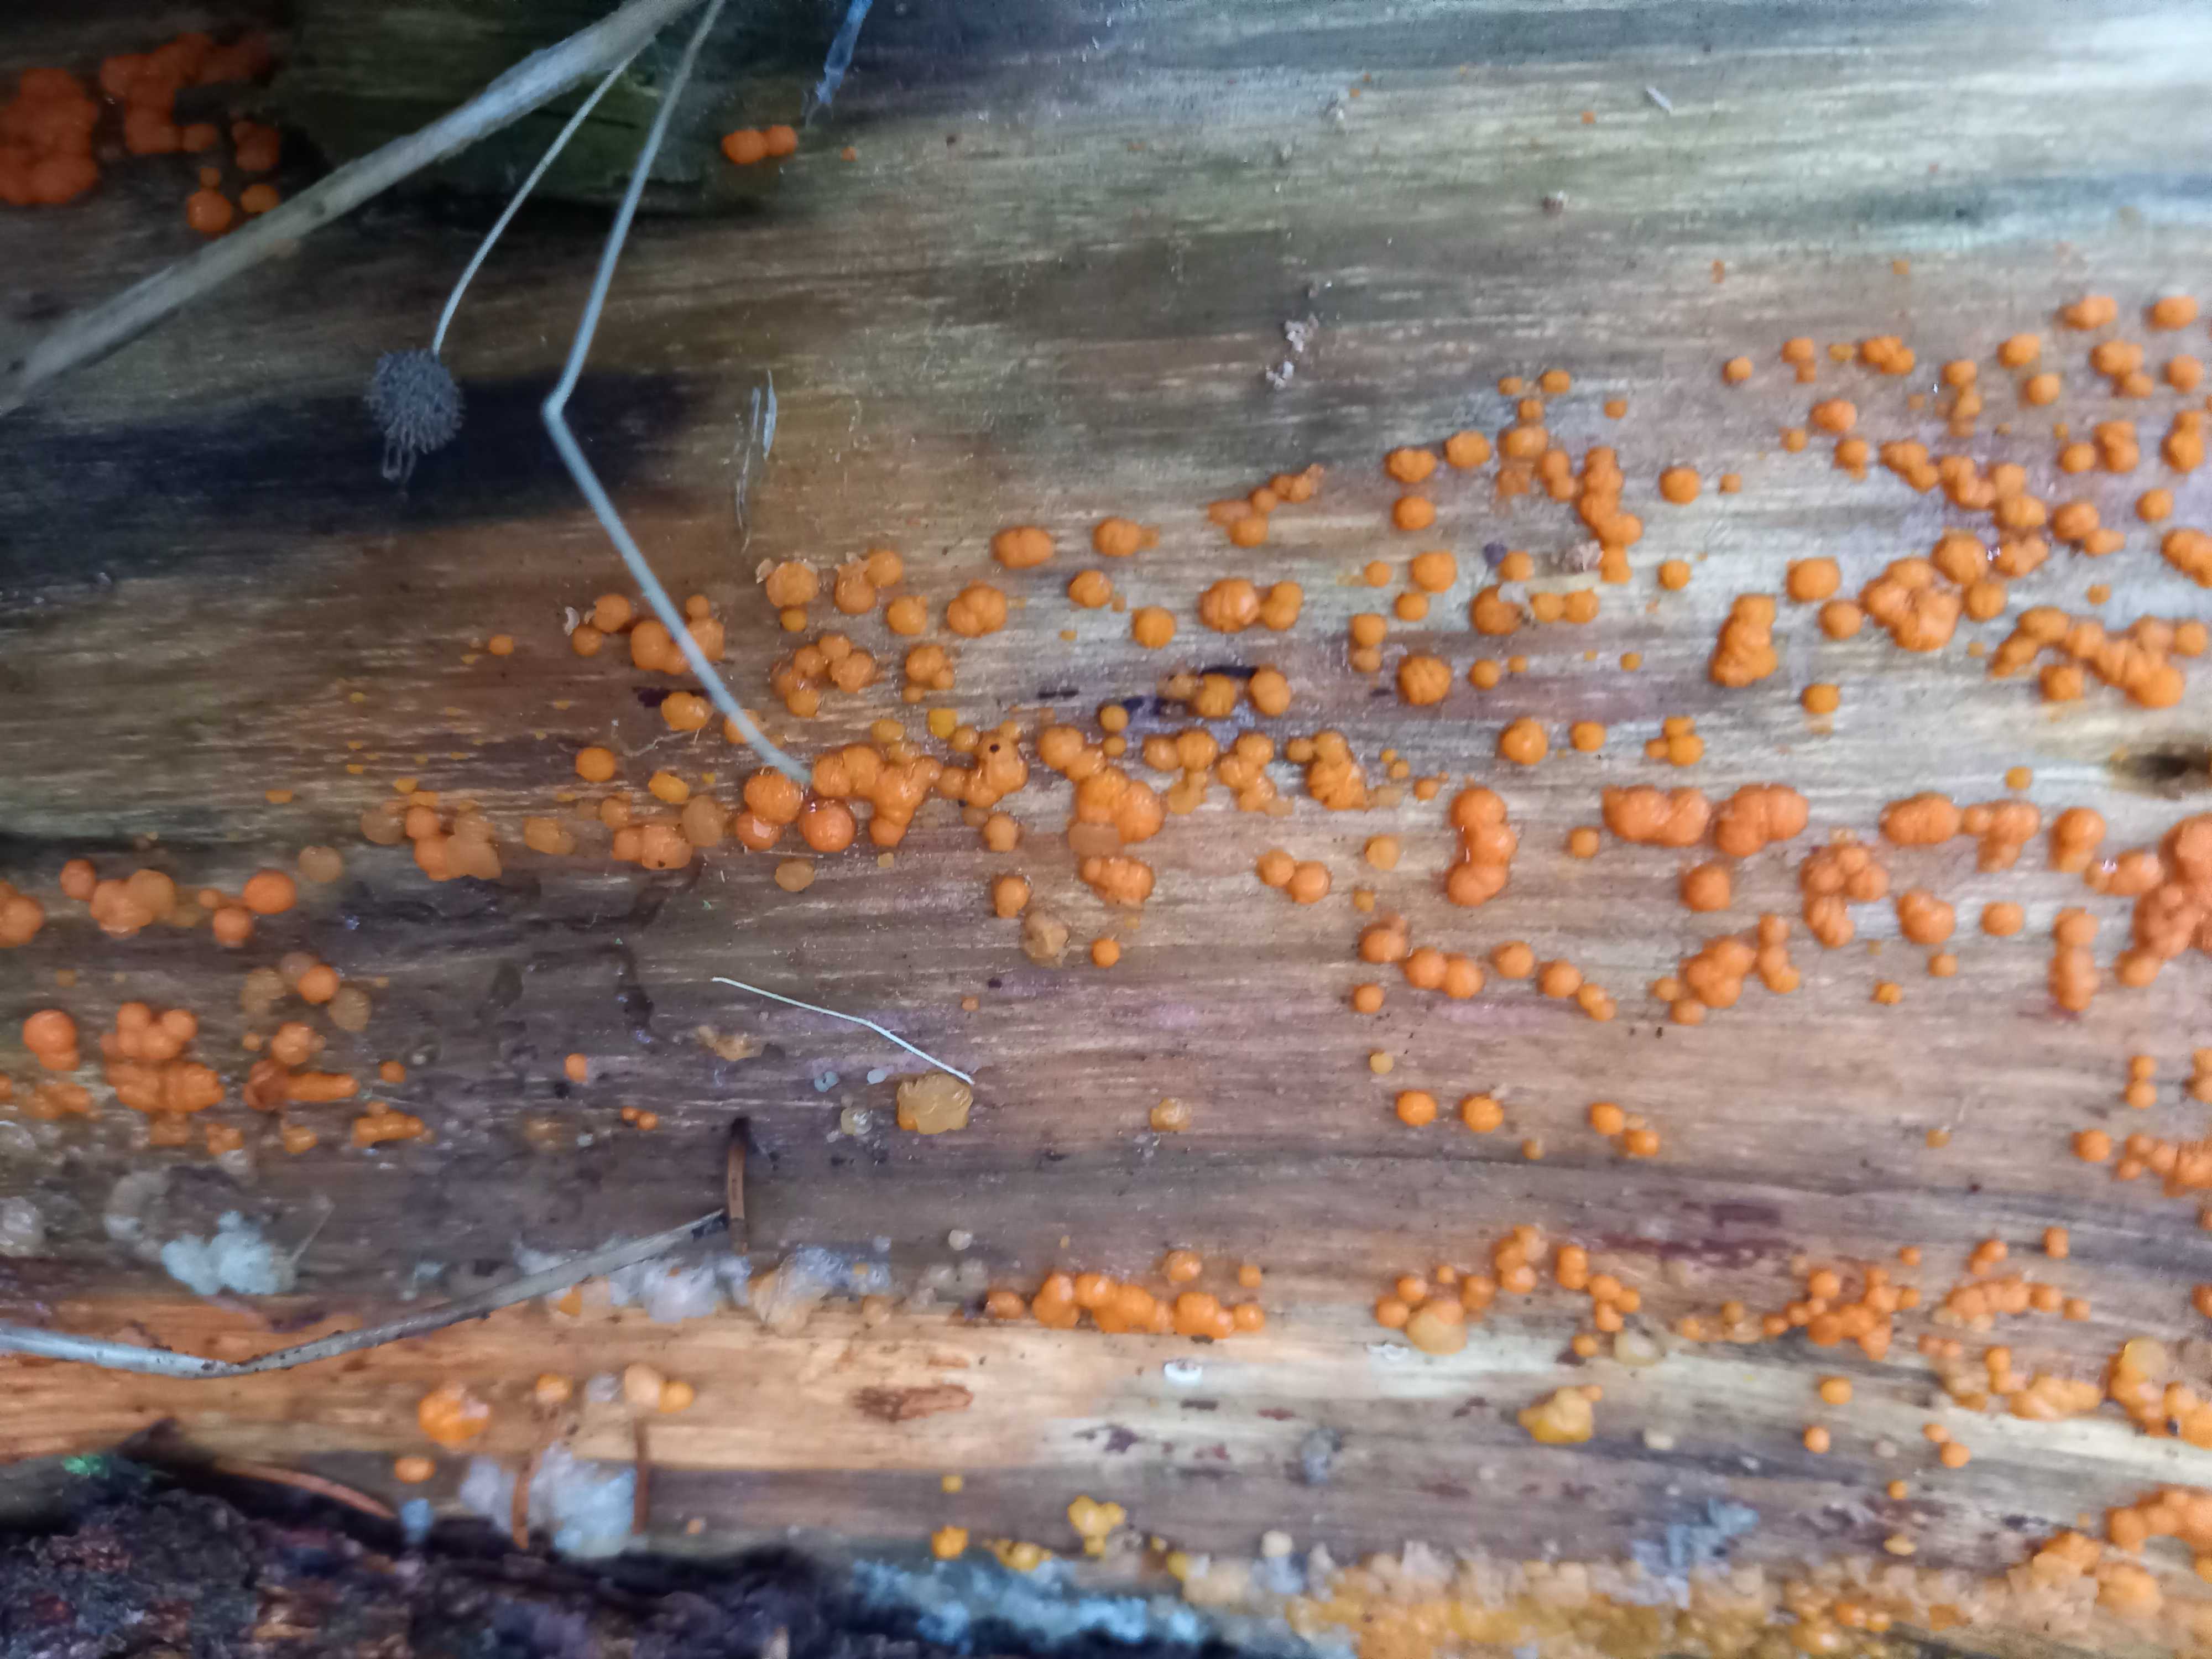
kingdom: Fungi
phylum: Basidiomycota
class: Dacrymycetes
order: Dacrymycetales
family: Dacrymycetaceae
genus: Dacrymyces
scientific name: Dacrymyces stillatus
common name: almindelig tåresvamp
